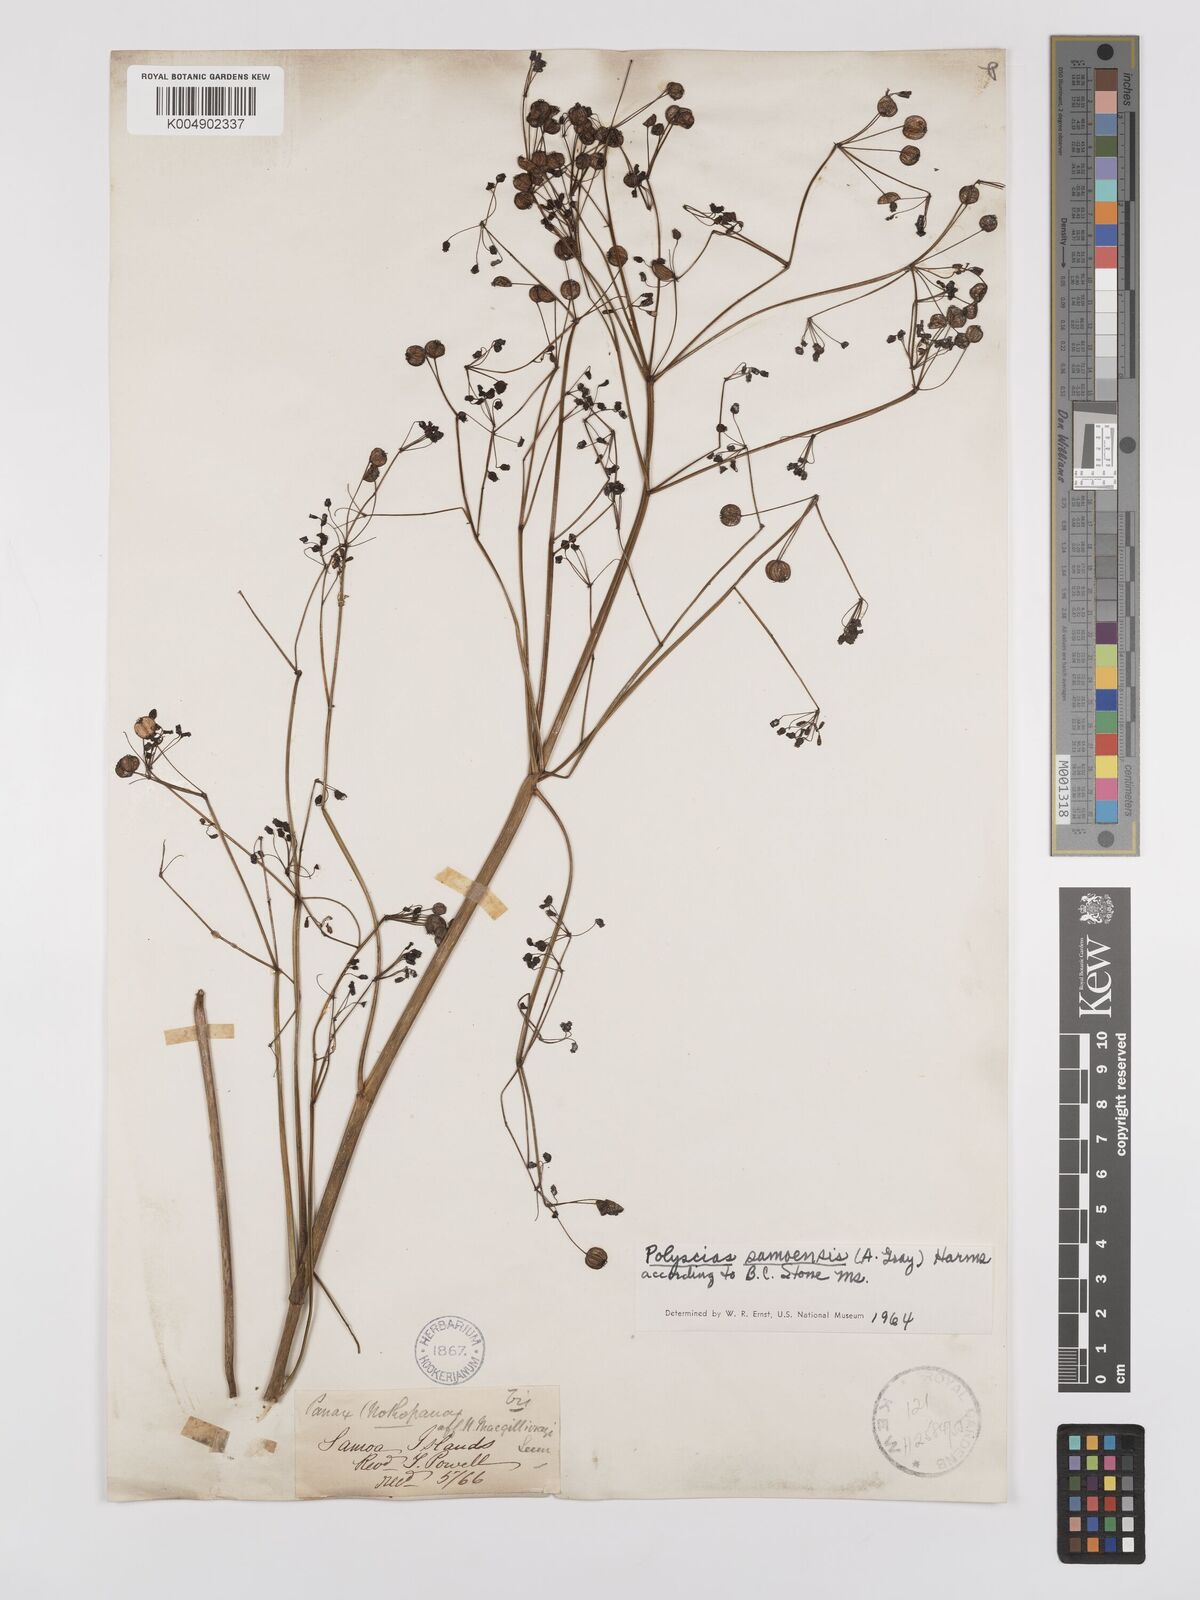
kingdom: Plantae
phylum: Tracheophyta
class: Magnoliopsida
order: Apiales
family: Araliaceae
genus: Polyscias
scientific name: Polyscias samoensis
